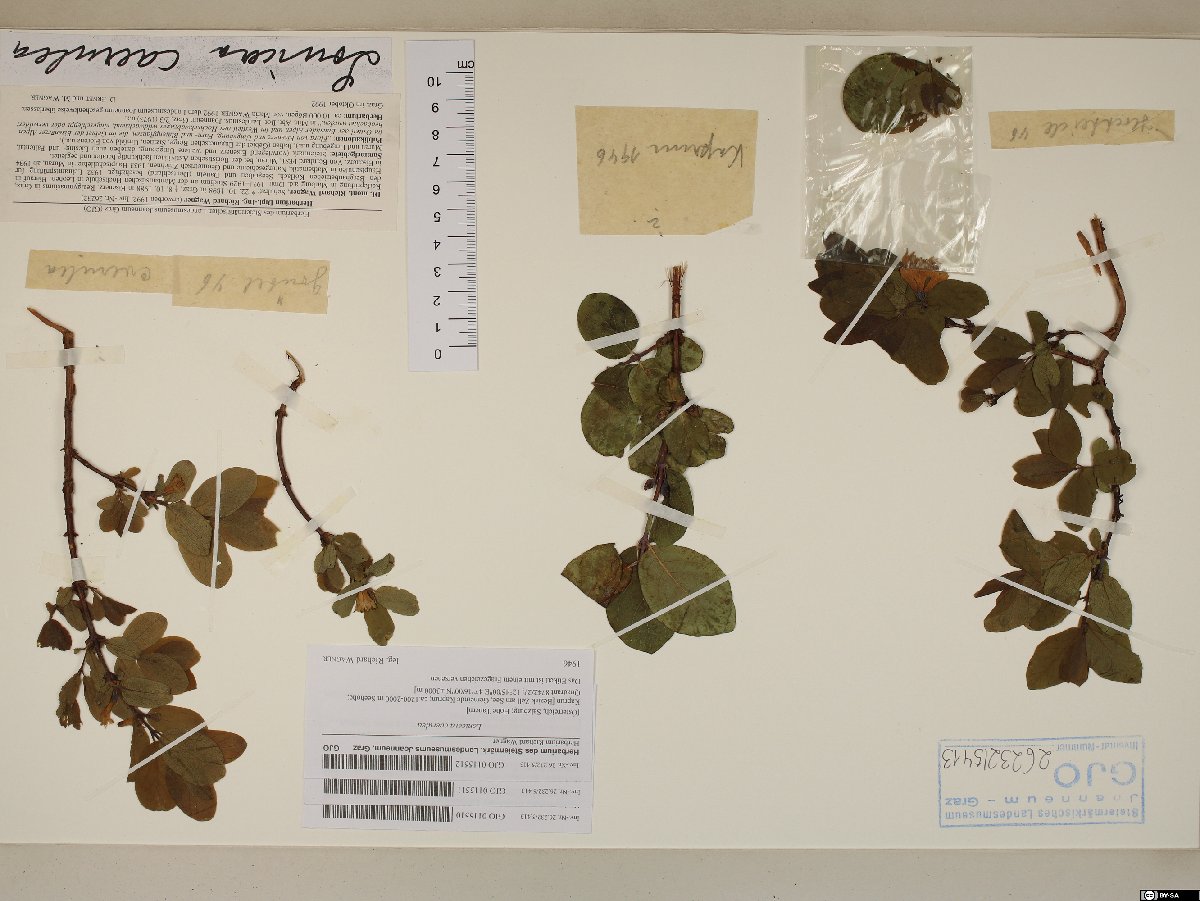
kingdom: Plantae
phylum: Tracheophyta
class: Magnoliopsida
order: Dipsacales
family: Caprifoliaceae
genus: Lonicera
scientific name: Lonicera caerulea
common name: Blue honeysuckle
